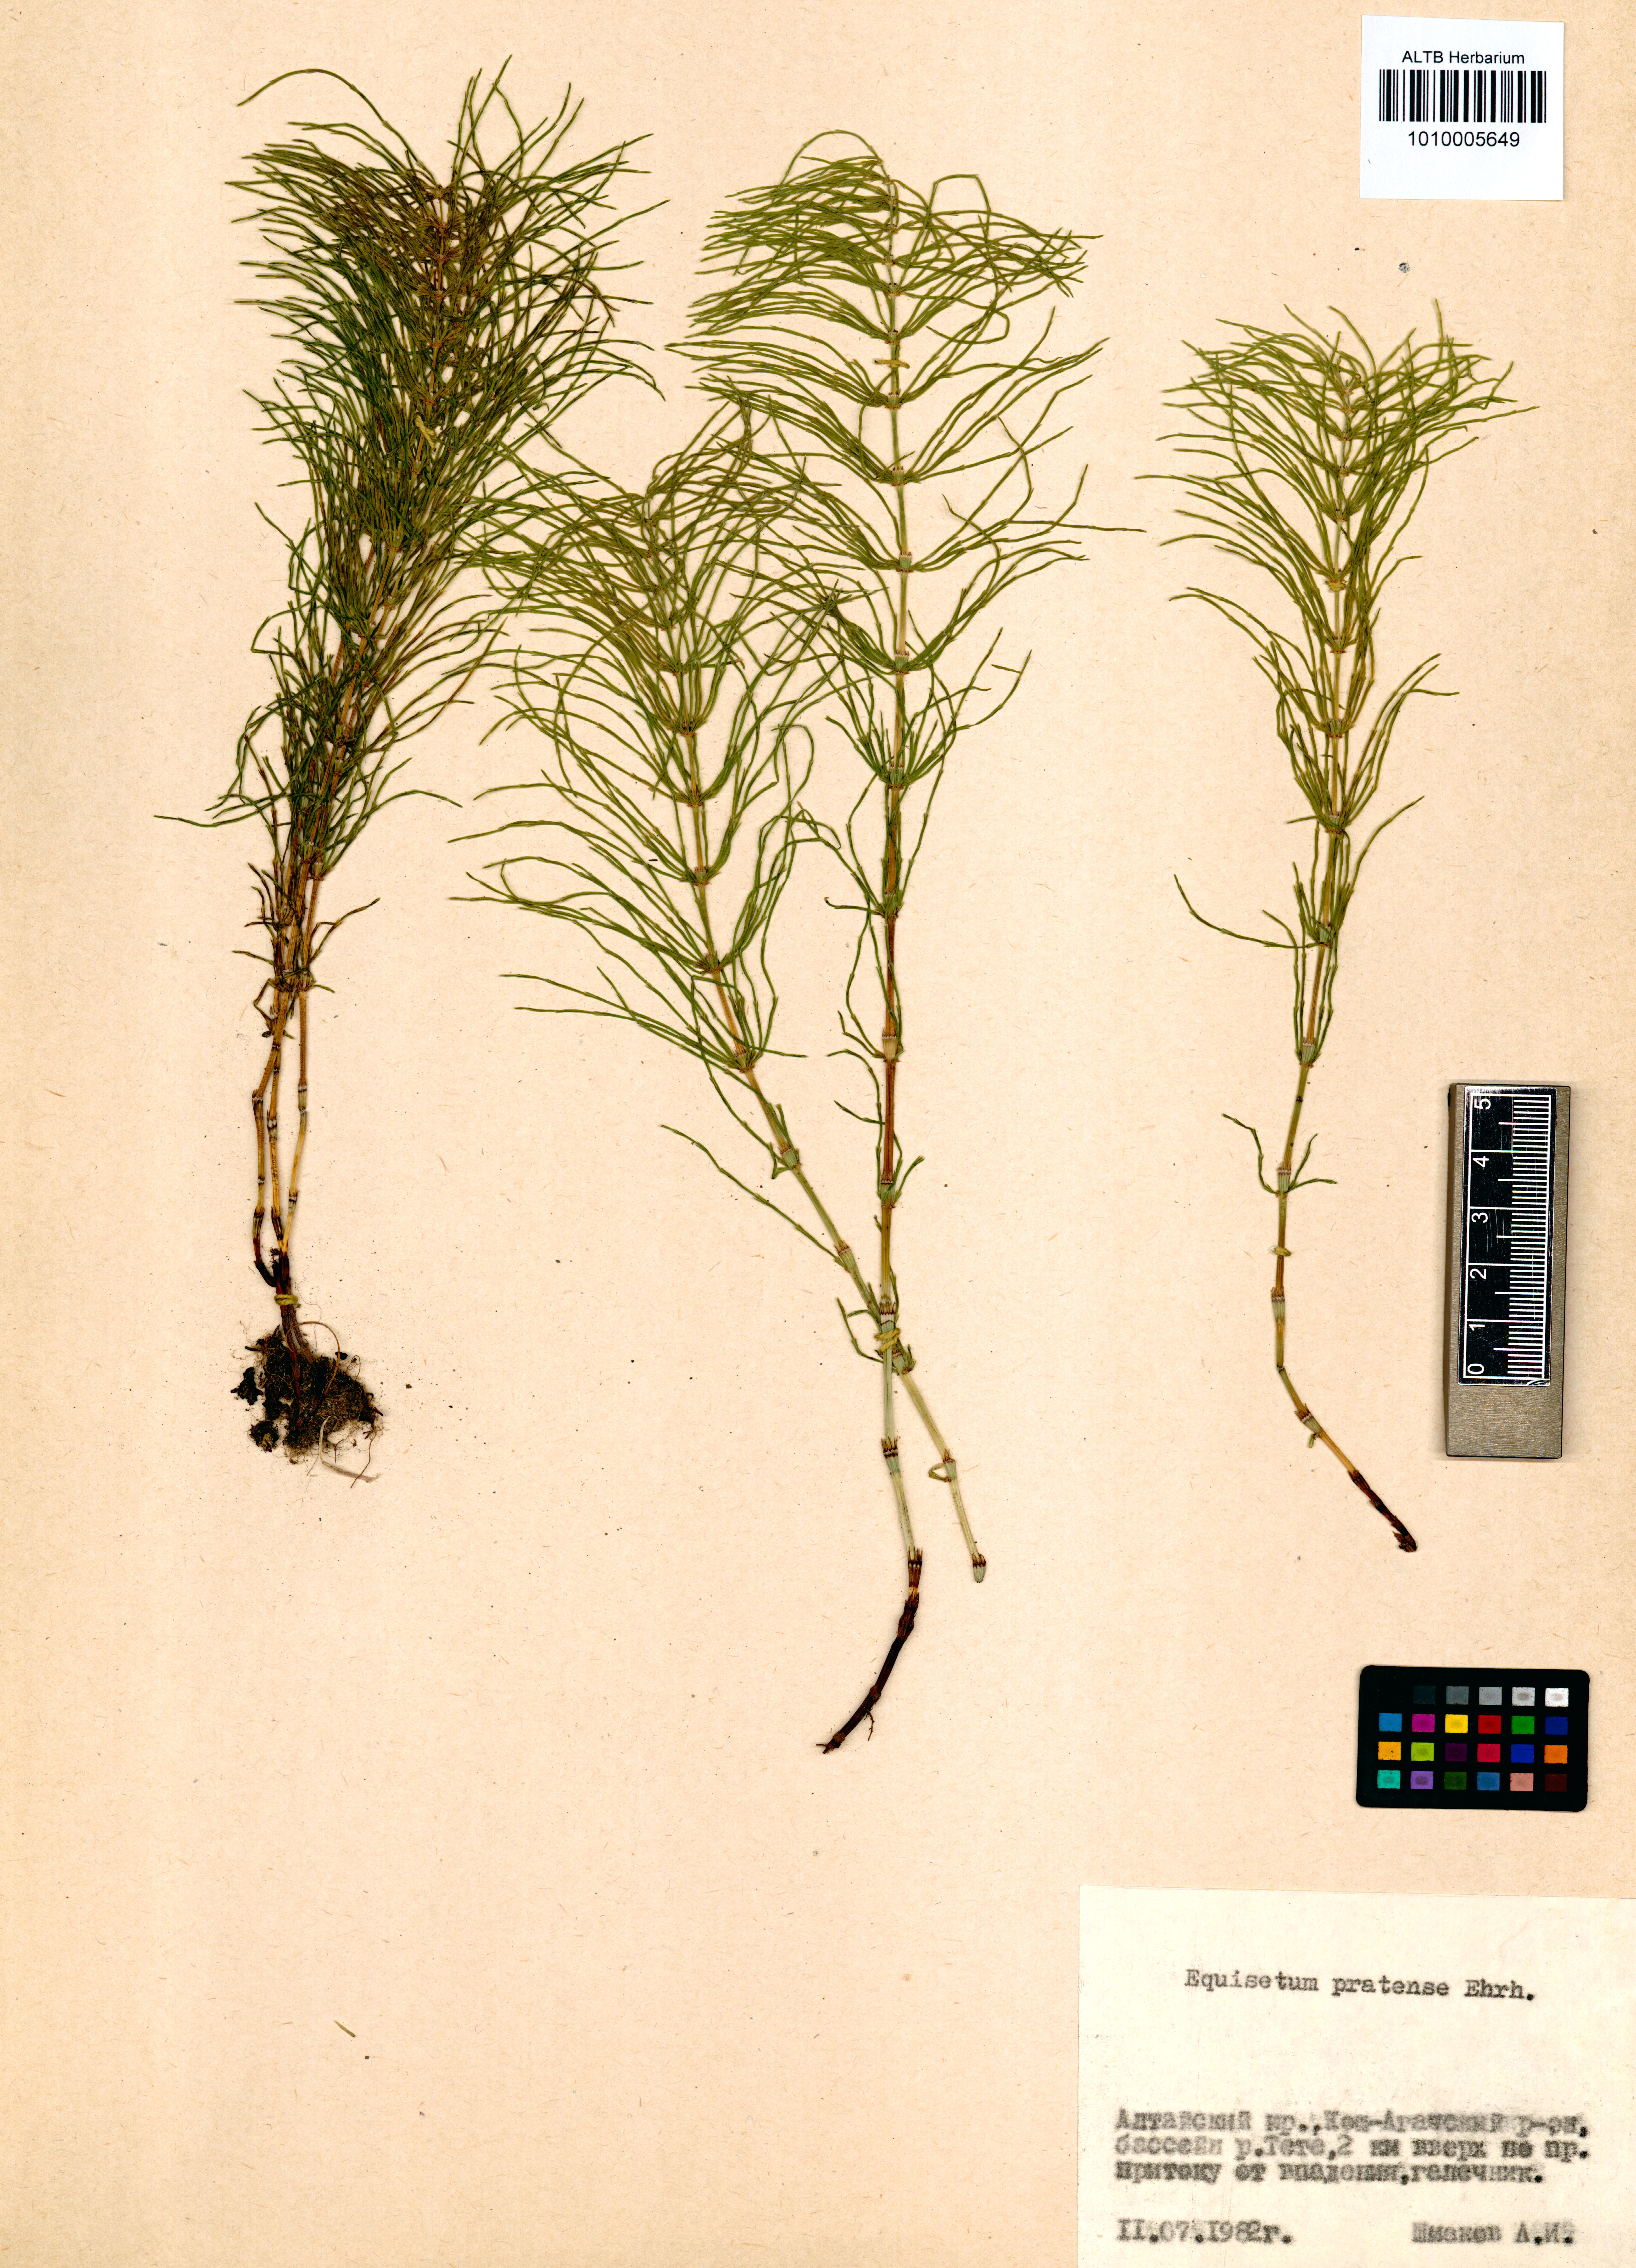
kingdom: Plantae
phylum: Tracheophyta
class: Polypodiopsida
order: Equisetales
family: Equisetaceae
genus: Equisetum
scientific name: Equisetum pratense
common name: Meadow horsetail
